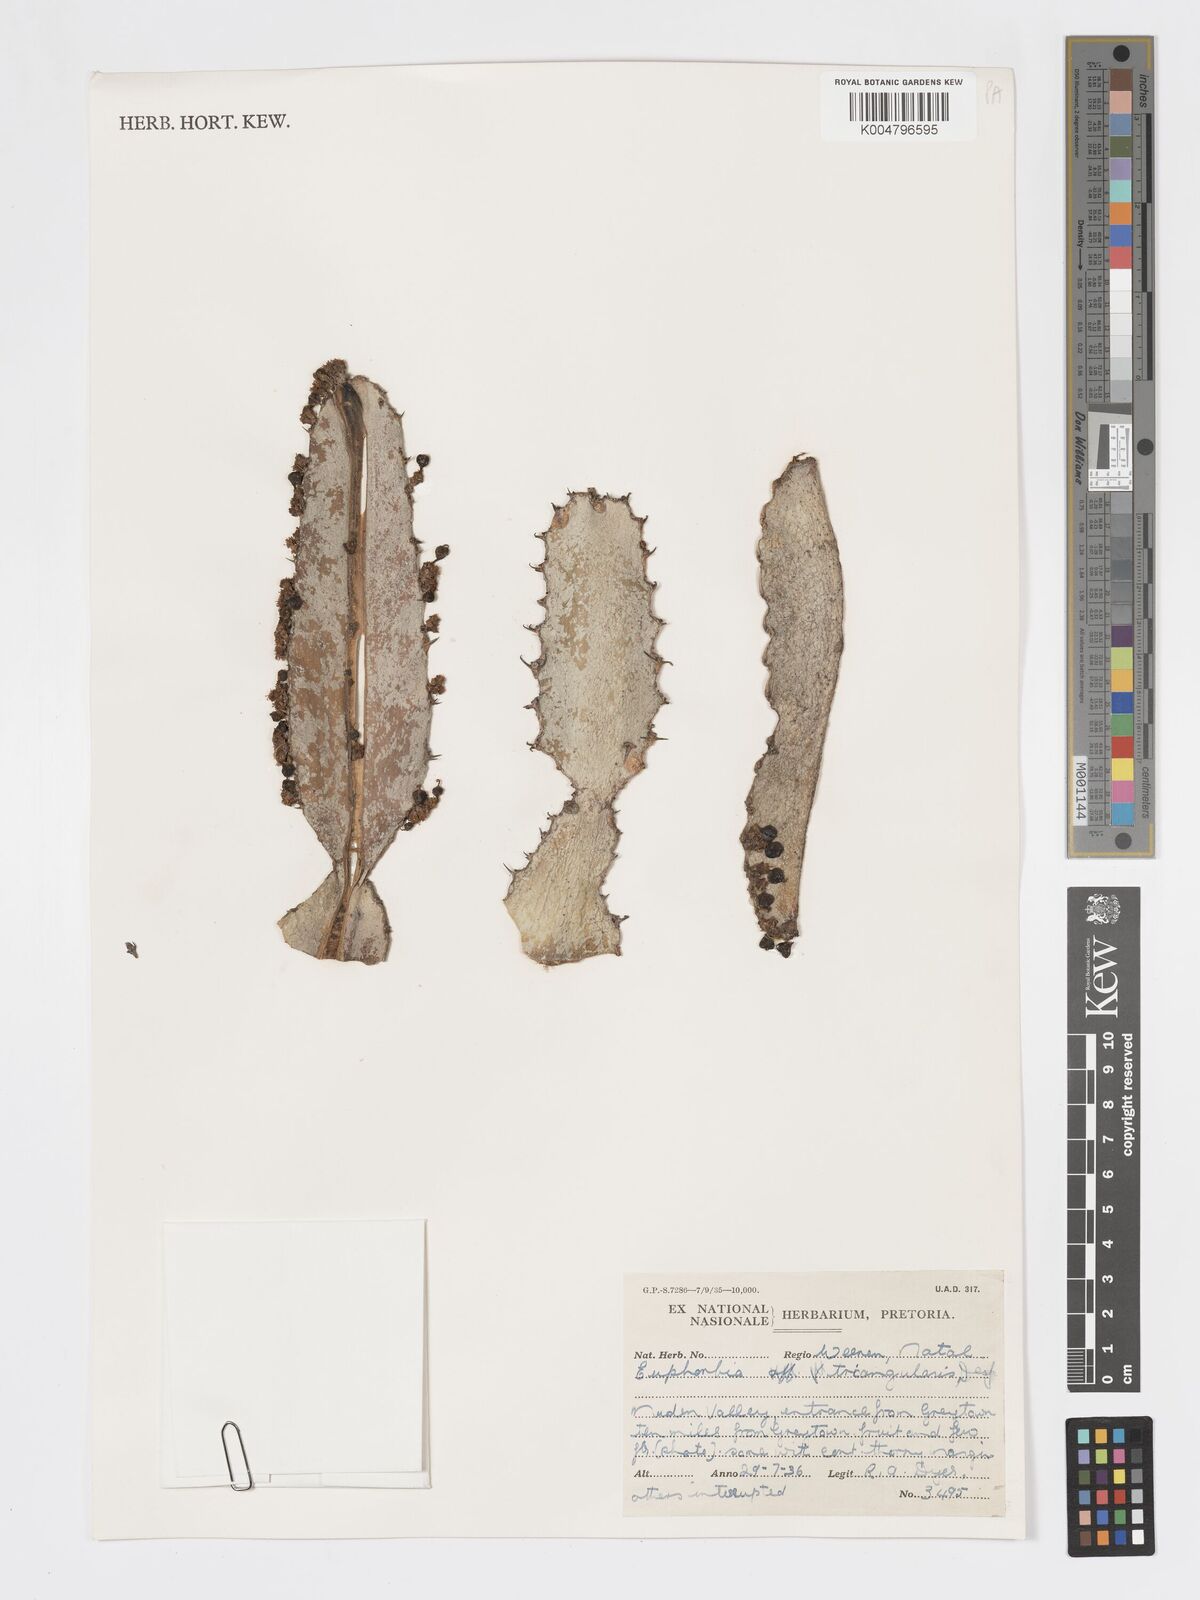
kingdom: Plantae
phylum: Tracheophyta
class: Magnoliopsida
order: Malpighiales
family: Euphorbiaceae
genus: Euphorbia
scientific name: Euphorbia triangularis
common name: Chandelier tree
